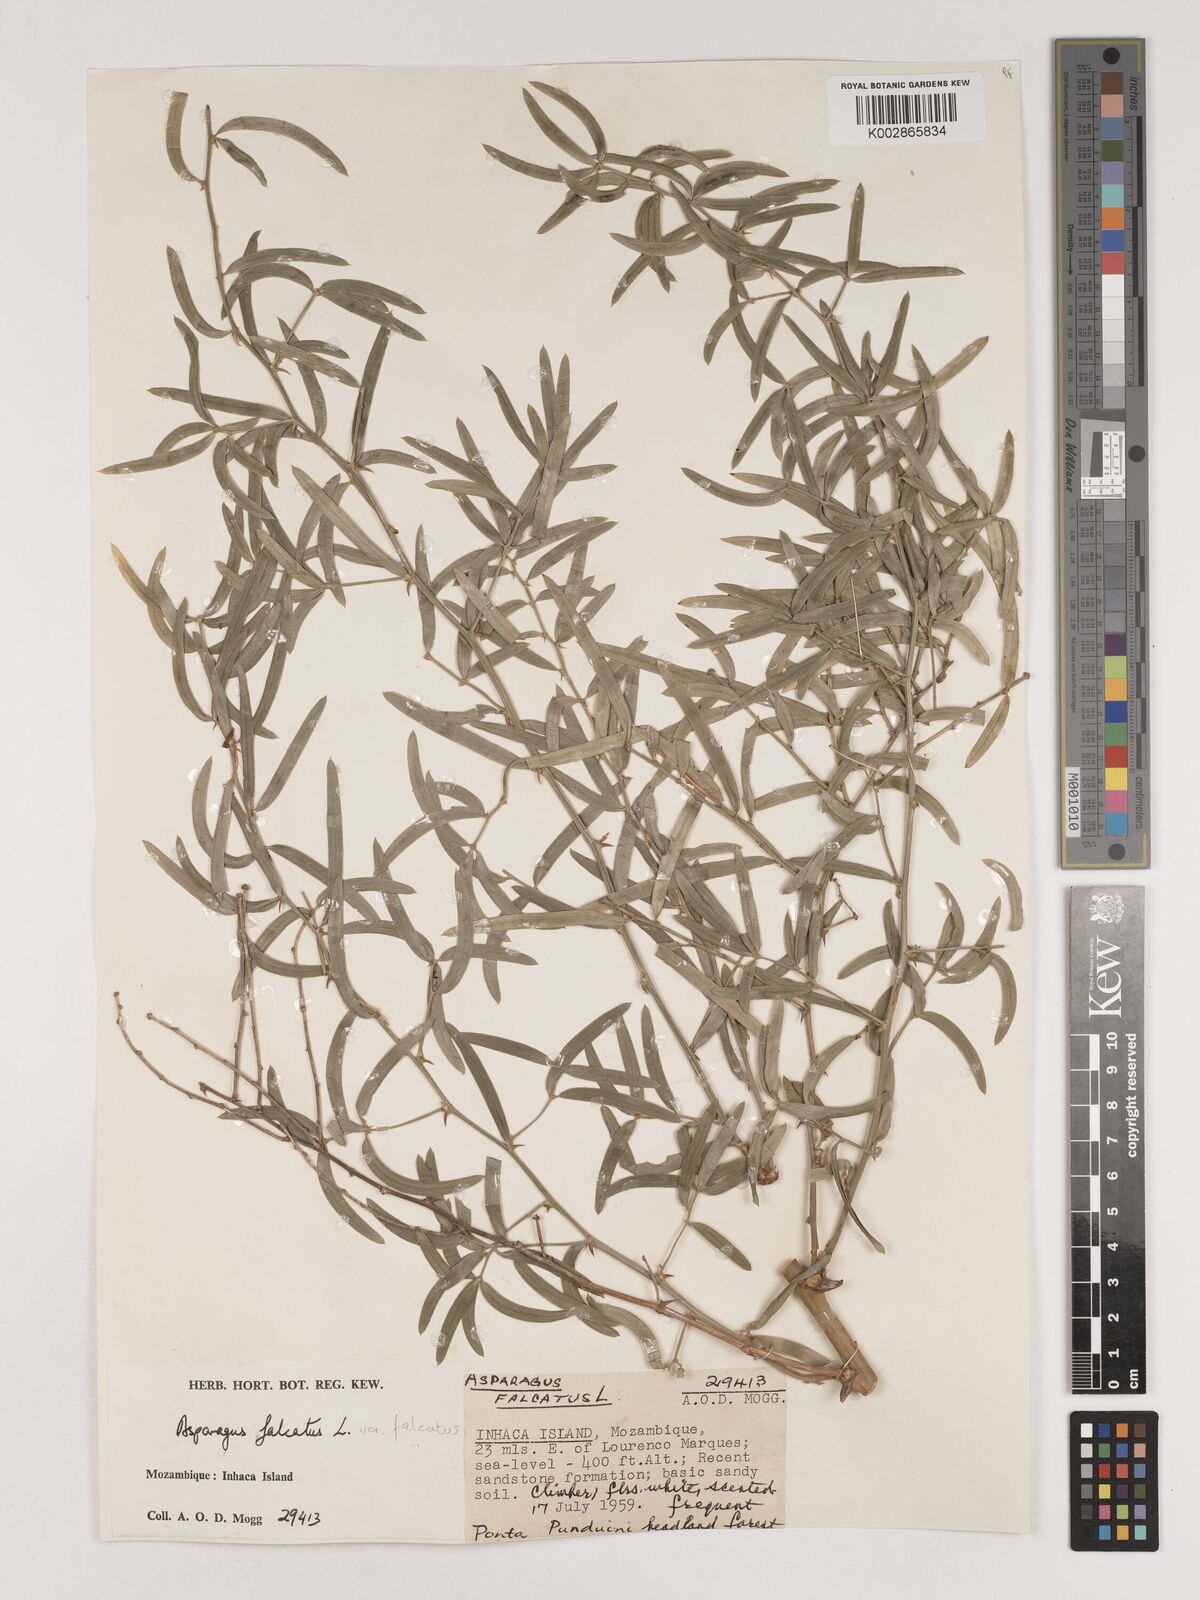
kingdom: Plantae
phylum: Tracheophyta
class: Liliopsida
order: Asparagales
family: Asparagaceae
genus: Asparagus
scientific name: Asparagus falcatus
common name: Asparagus
